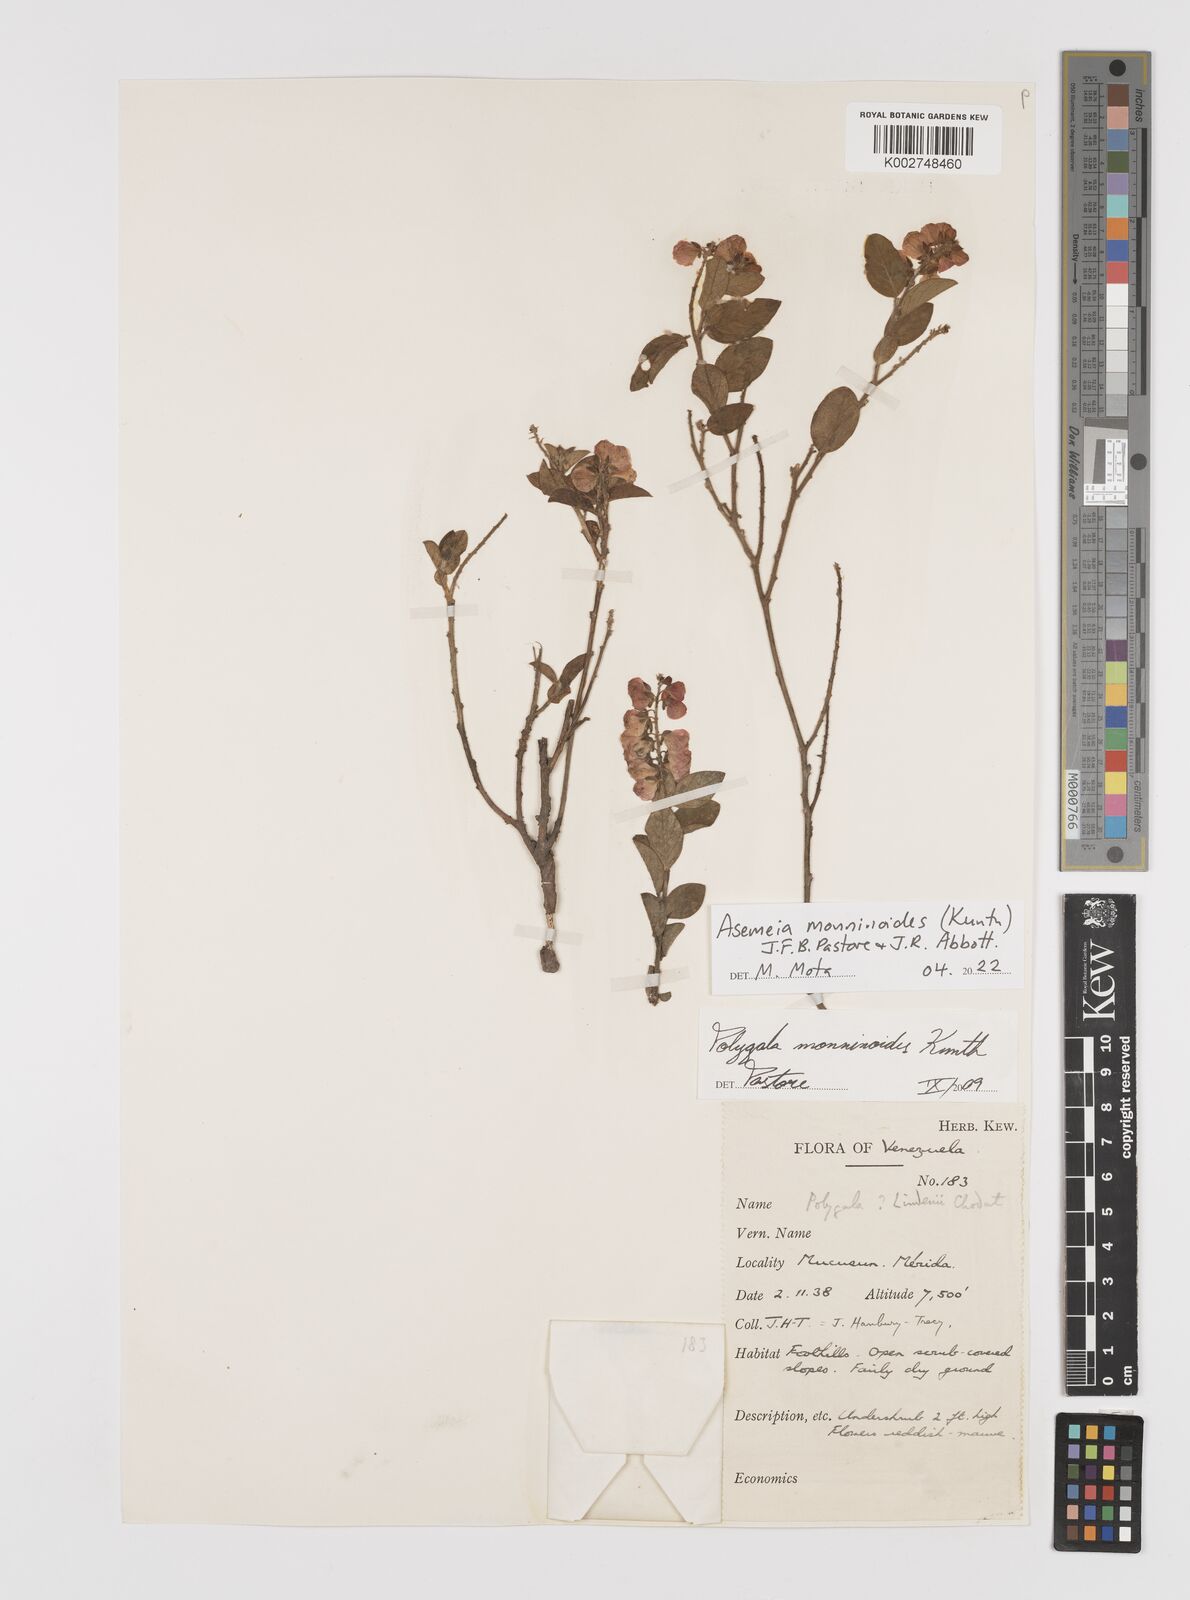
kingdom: Plantae
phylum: Tracheophyta
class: Magnoliopsida
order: Fabales
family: Polygalaceae
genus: Asemeia
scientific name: Asemeia monninoides
